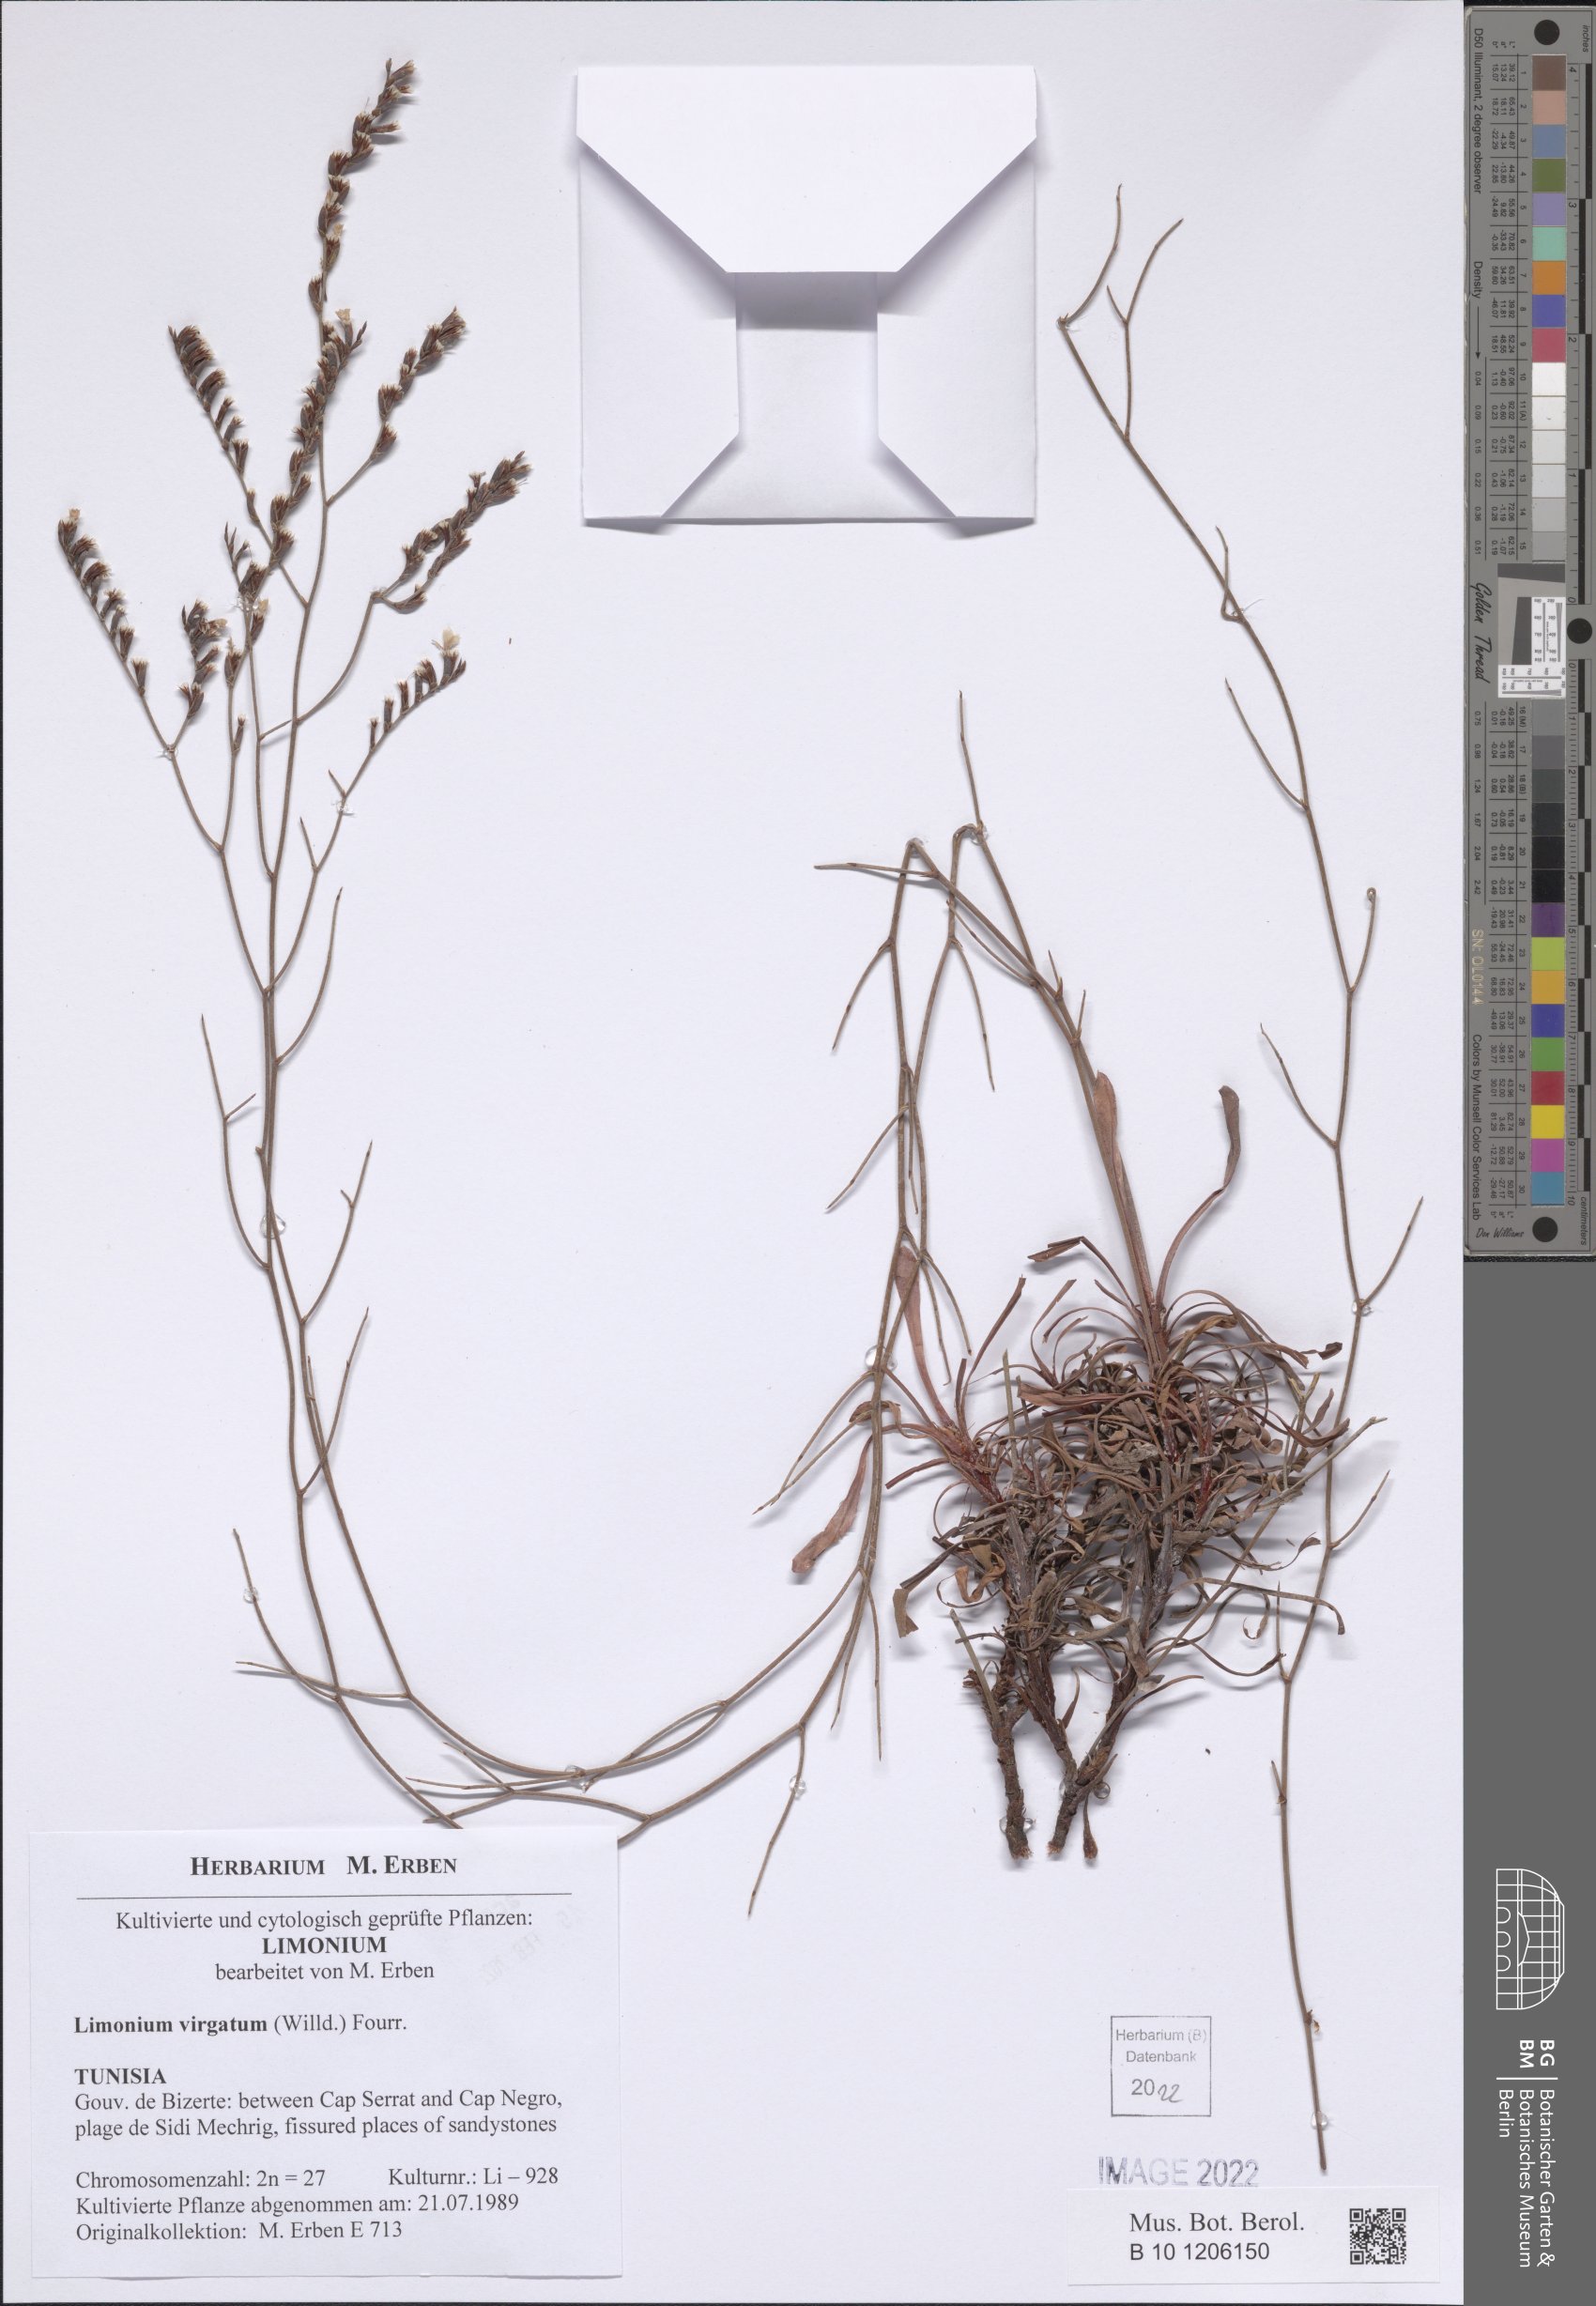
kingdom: Plantae
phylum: Tracheophyta
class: Magnoliopsida
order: Caryophyllales
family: Plumbaginaceae
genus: Limonium
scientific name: Limonium virgatum
